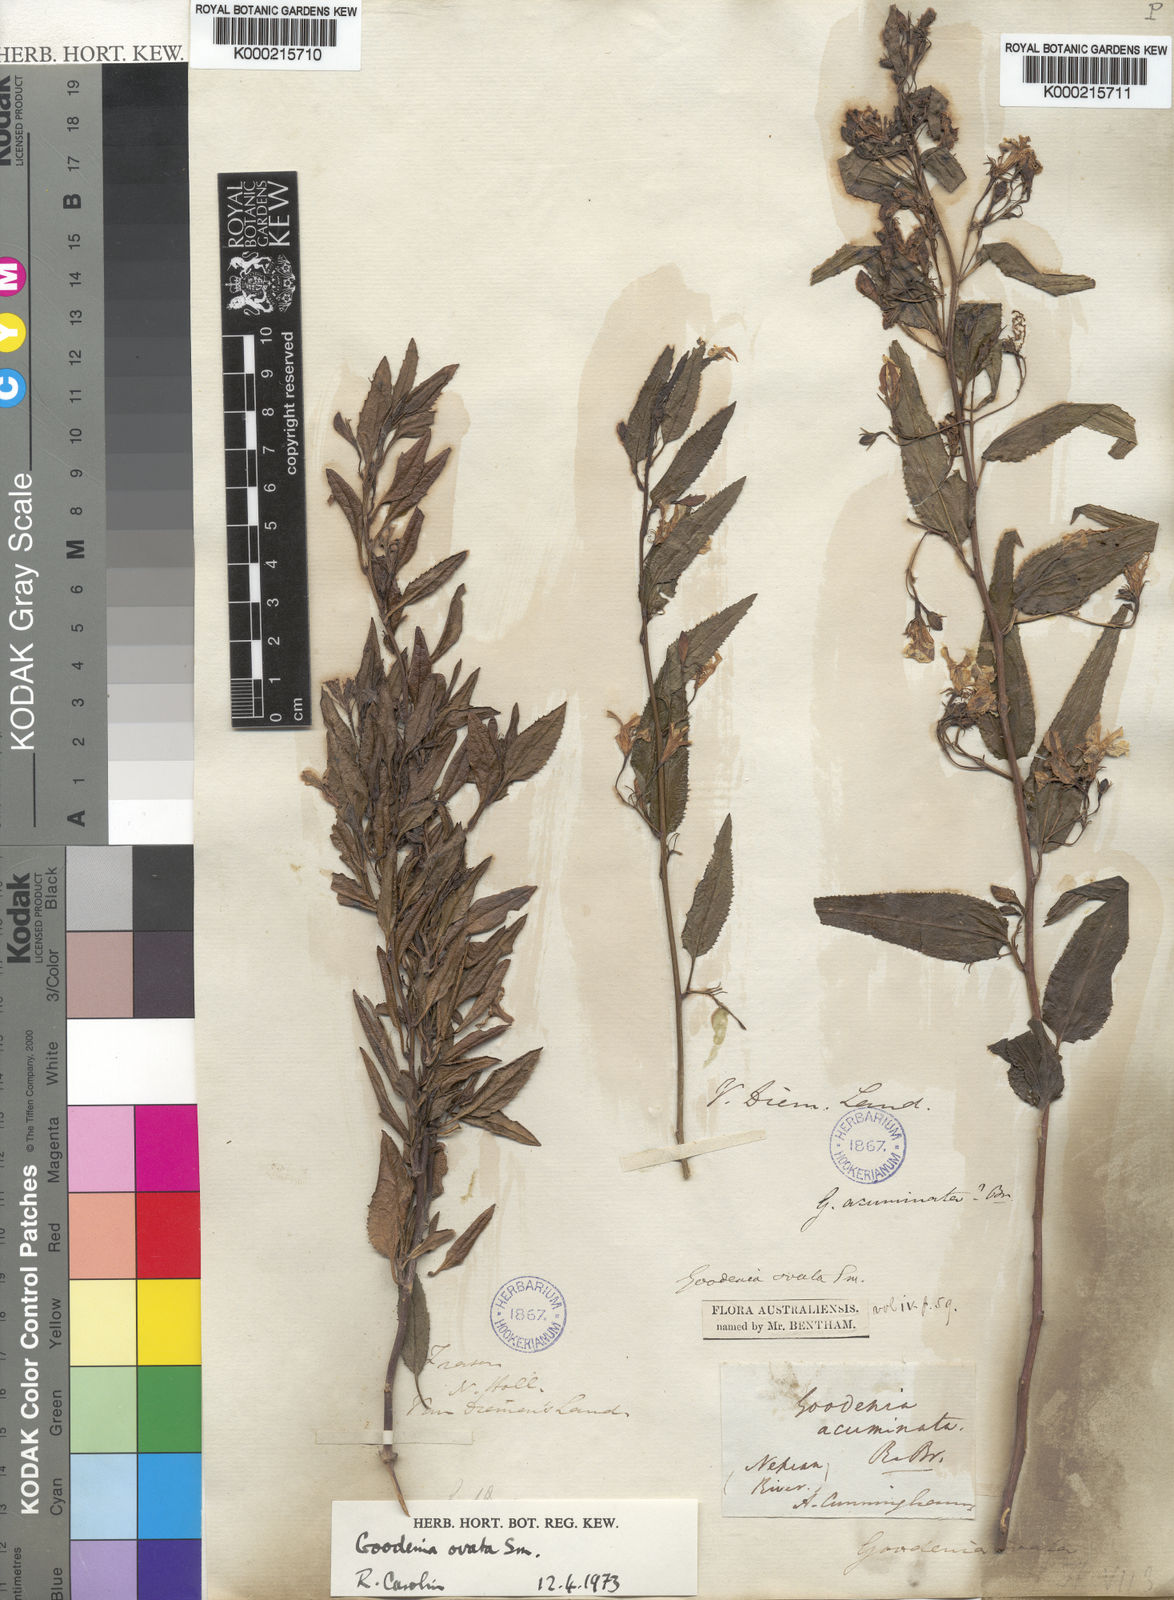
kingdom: Plantae
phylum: Tracheophyta
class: Magnoliopsida
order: Asterales
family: Goodeniaceae
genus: Goodenia
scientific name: Goodenia ovata
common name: Hop goodenia
